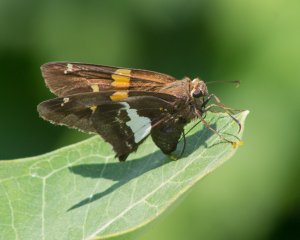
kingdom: Animalia
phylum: Arthropoda
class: Insecta
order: Lepidoptera
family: Hesperiidae
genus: Epargyreus
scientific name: Epargyreus clarus
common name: Silver-spotted Skipper
